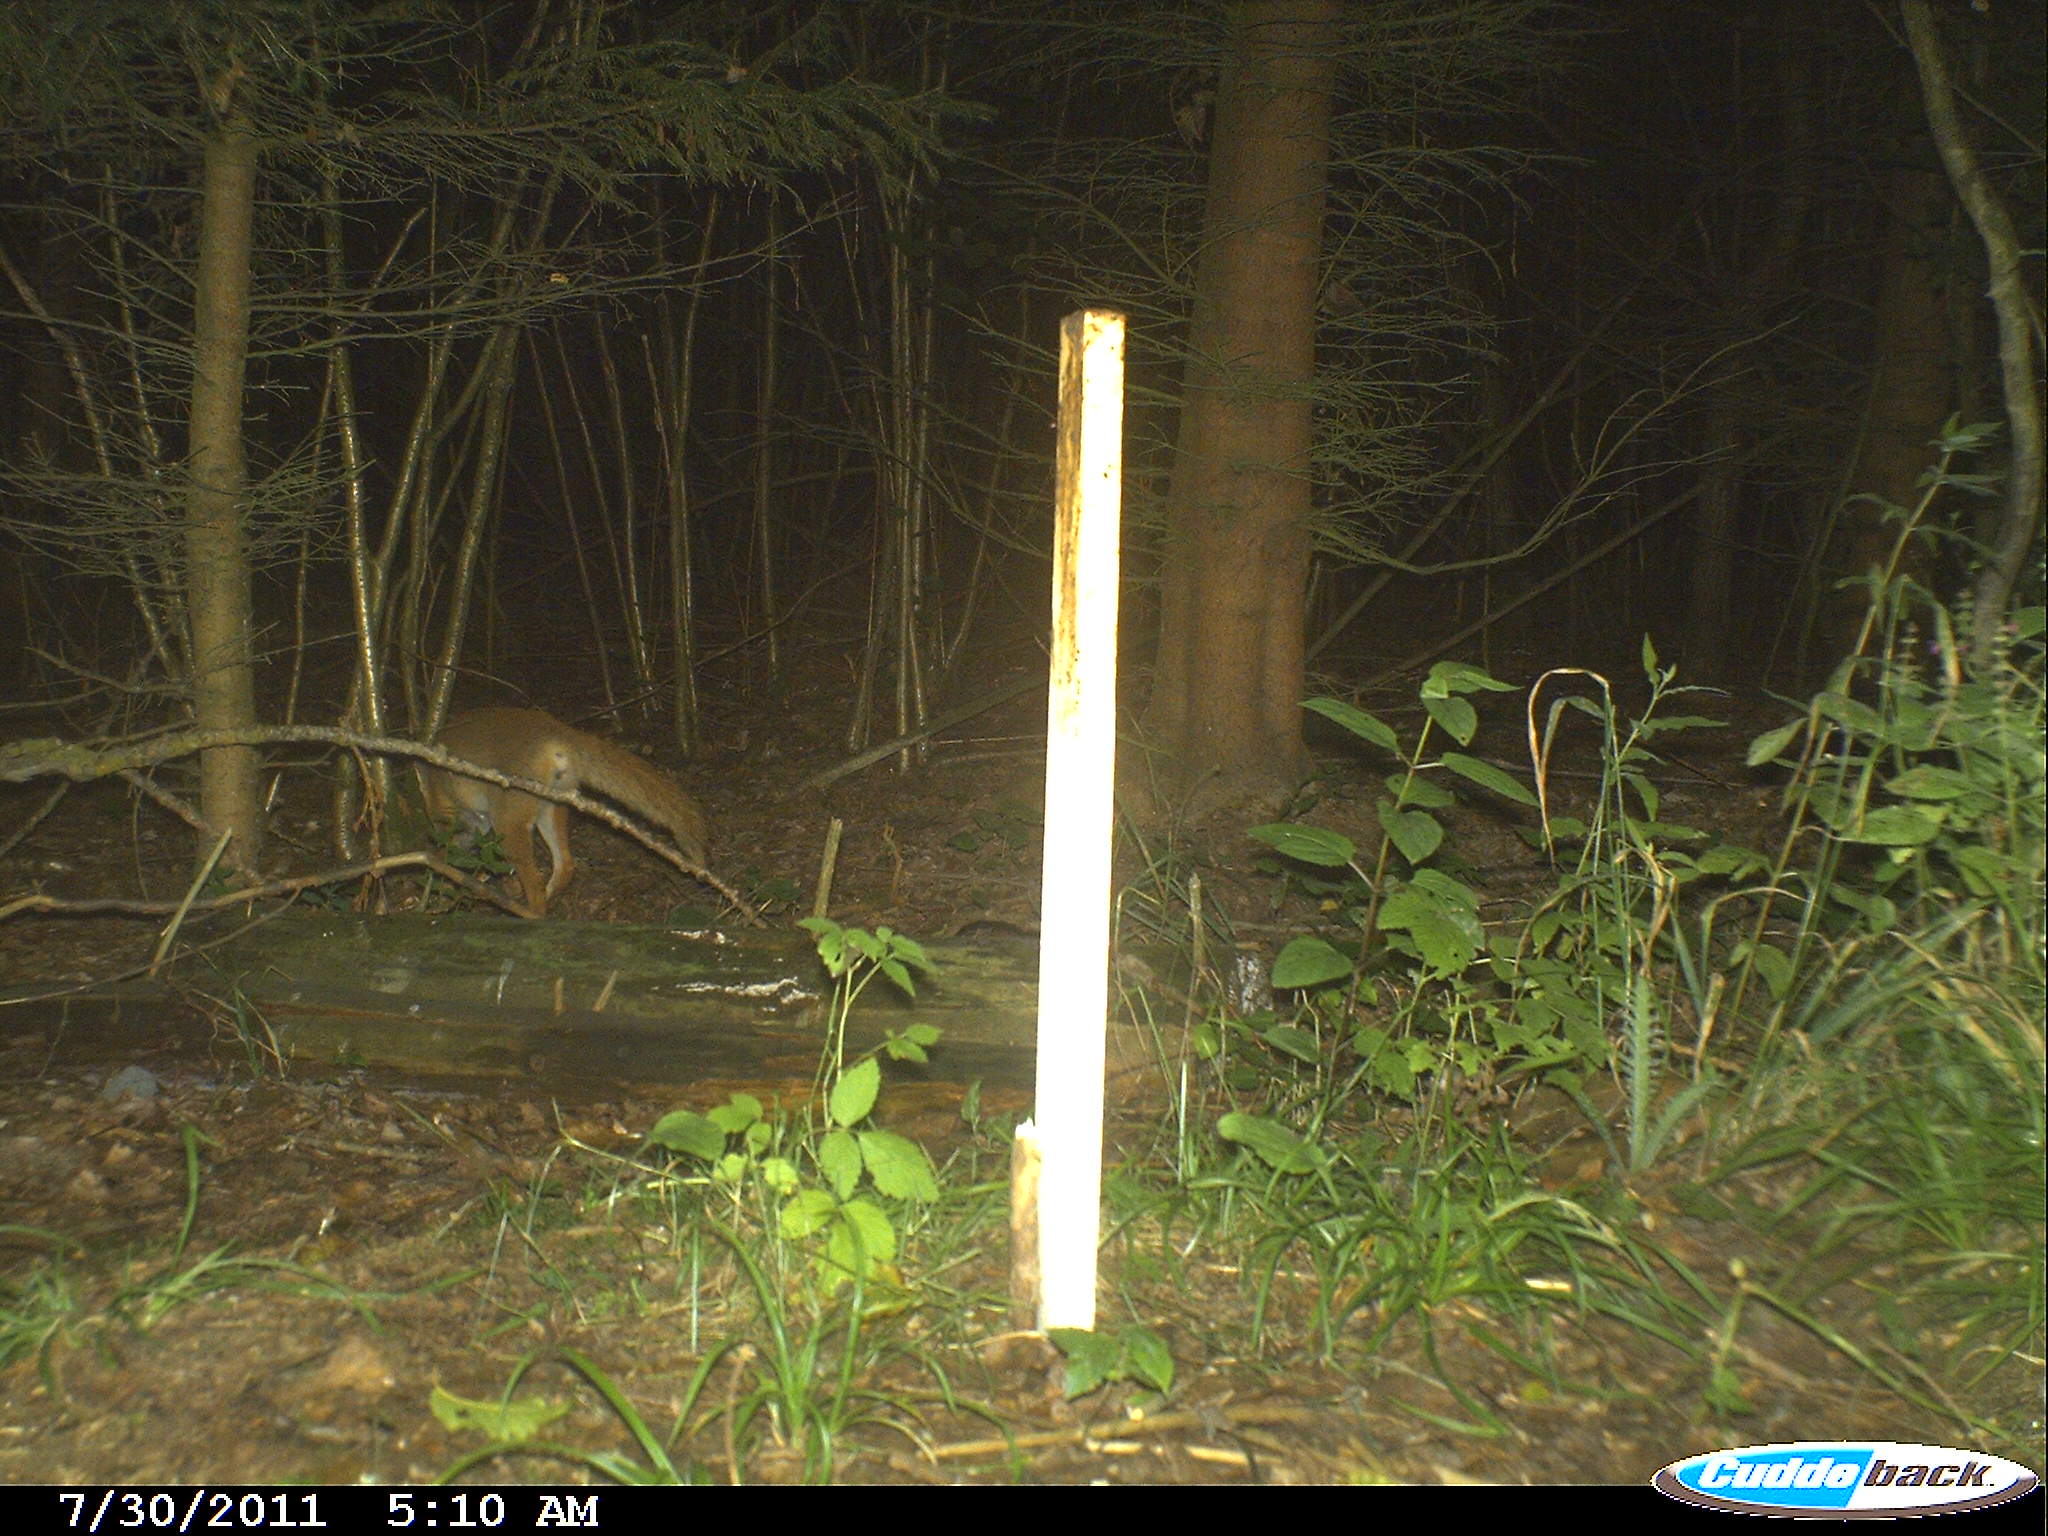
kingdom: Animalia
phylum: Chordata
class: Mammalia
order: Carnivora
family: Canidae
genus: Vulpes
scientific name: Vulpes vulpes
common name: Red fox
